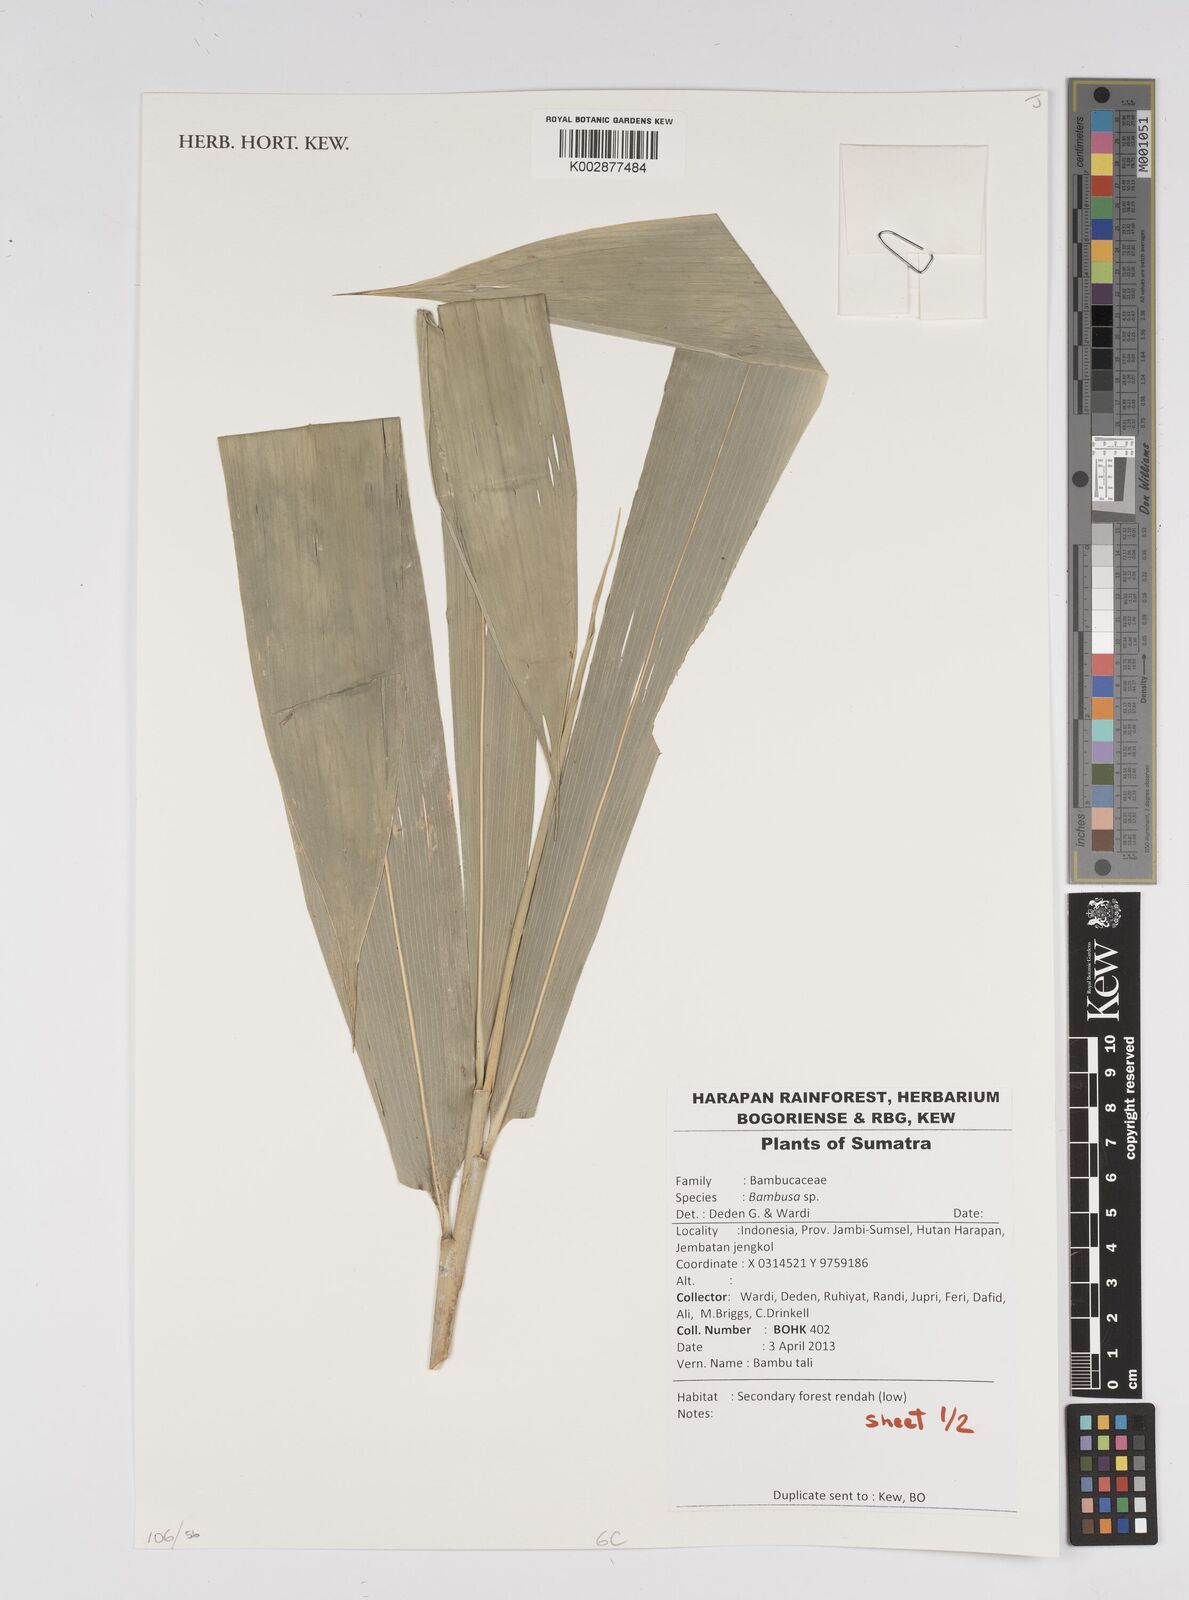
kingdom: Plantae
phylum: Tracheophyta
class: Liliopsida
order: Poales
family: Poaceae
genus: Bambusa
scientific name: Bambusa
